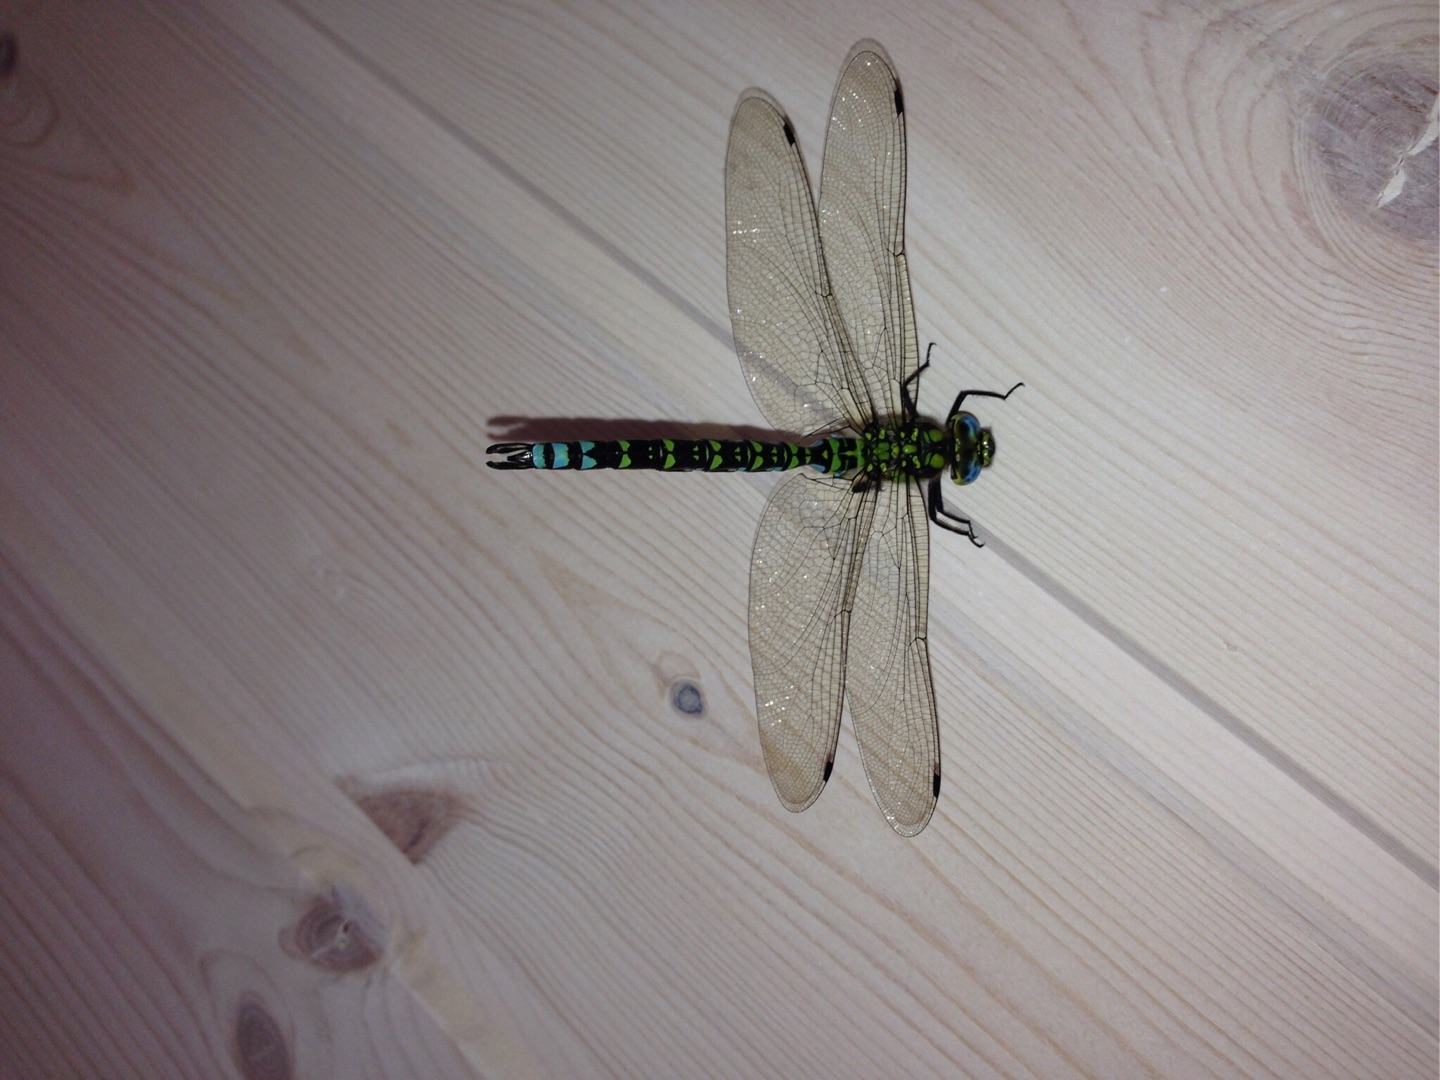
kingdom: Animalia
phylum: Arthropoda
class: Insecta
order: Odonata
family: Aeshnidae
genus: Aeshna
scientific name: Aeshna cyanea
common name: Blå mosaikguldsmed
